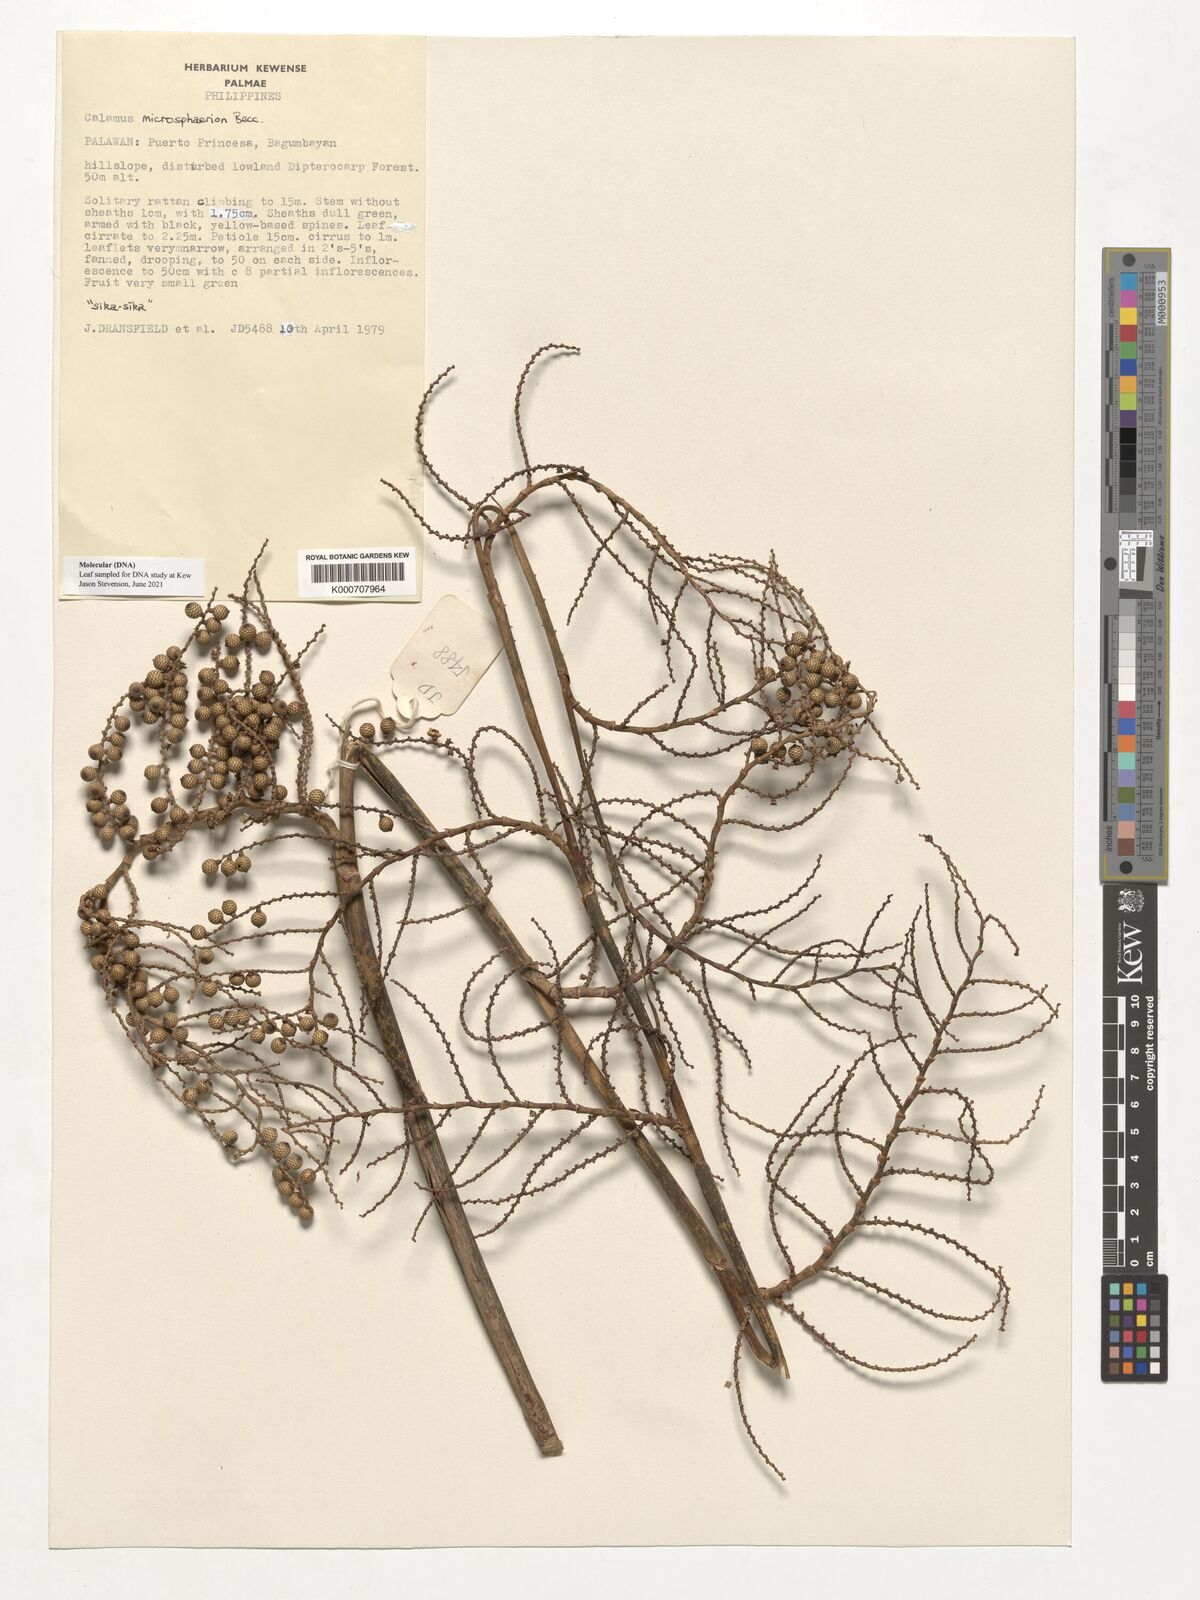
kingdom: Plantae
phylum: Tracheophyta
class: Liliopsida
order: Arecales
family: Arecaceae
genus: Calamus
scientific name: Calamus microsphaerion
